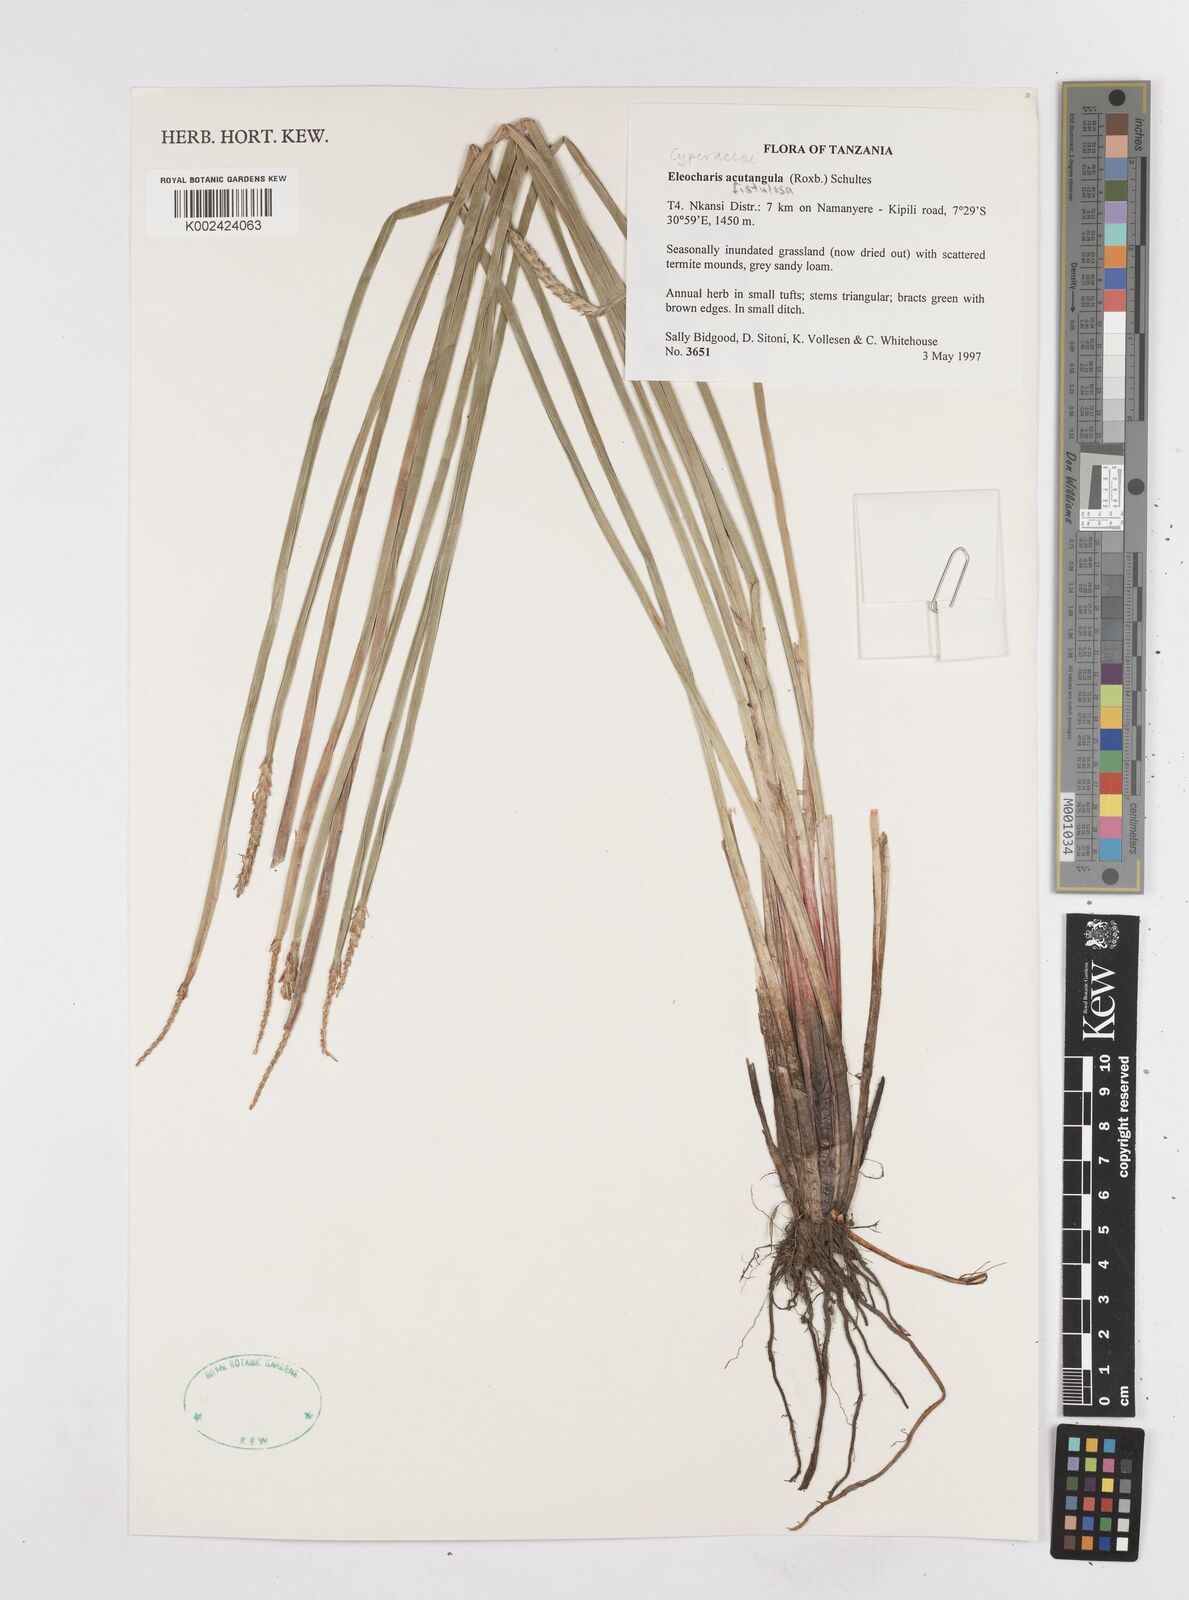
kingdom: Plantae
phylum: Tracheophyta
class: Liliopsida
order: Poales
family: Cyperaceae
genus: Eleocharis
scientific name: Eleocharis acutangula
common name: Acute spikerush
